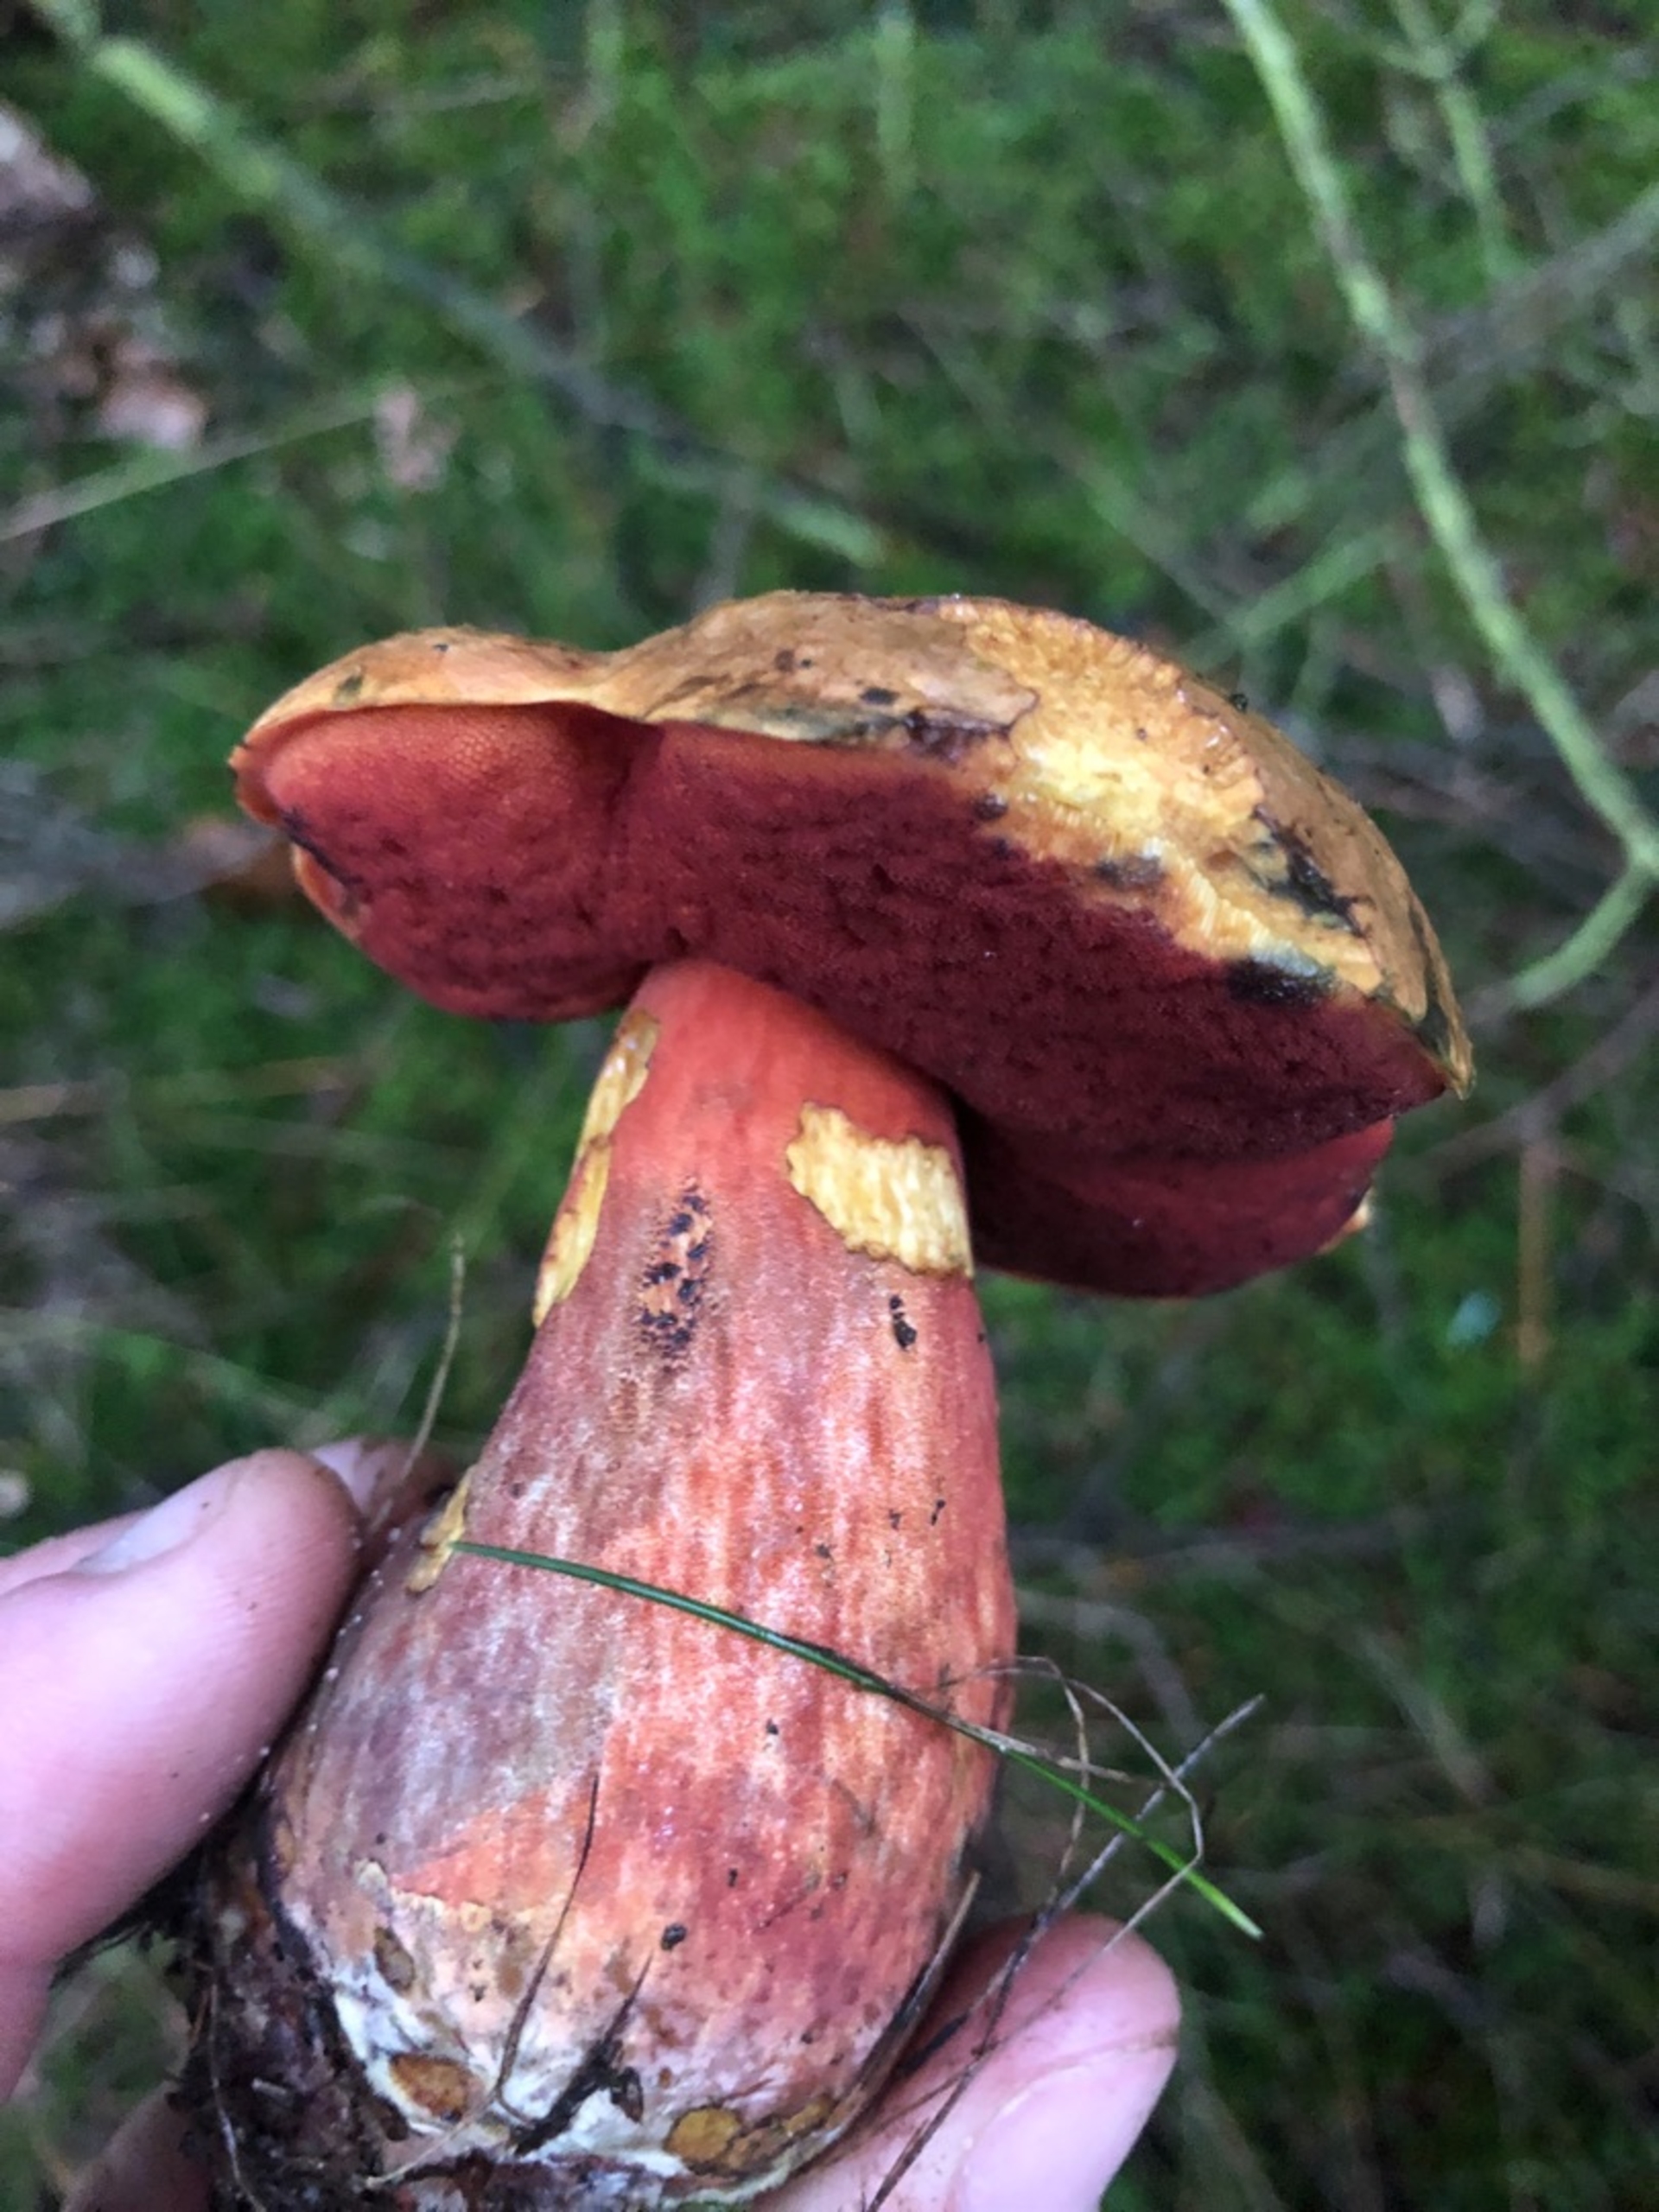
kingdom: Fungi
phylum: Basidiomycota
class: Agaricomycetes
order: Boletales
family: Boletaceae
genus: Neoboletus
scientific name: Neoboletus luridiformis
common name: Punktstokket indigorørhat
